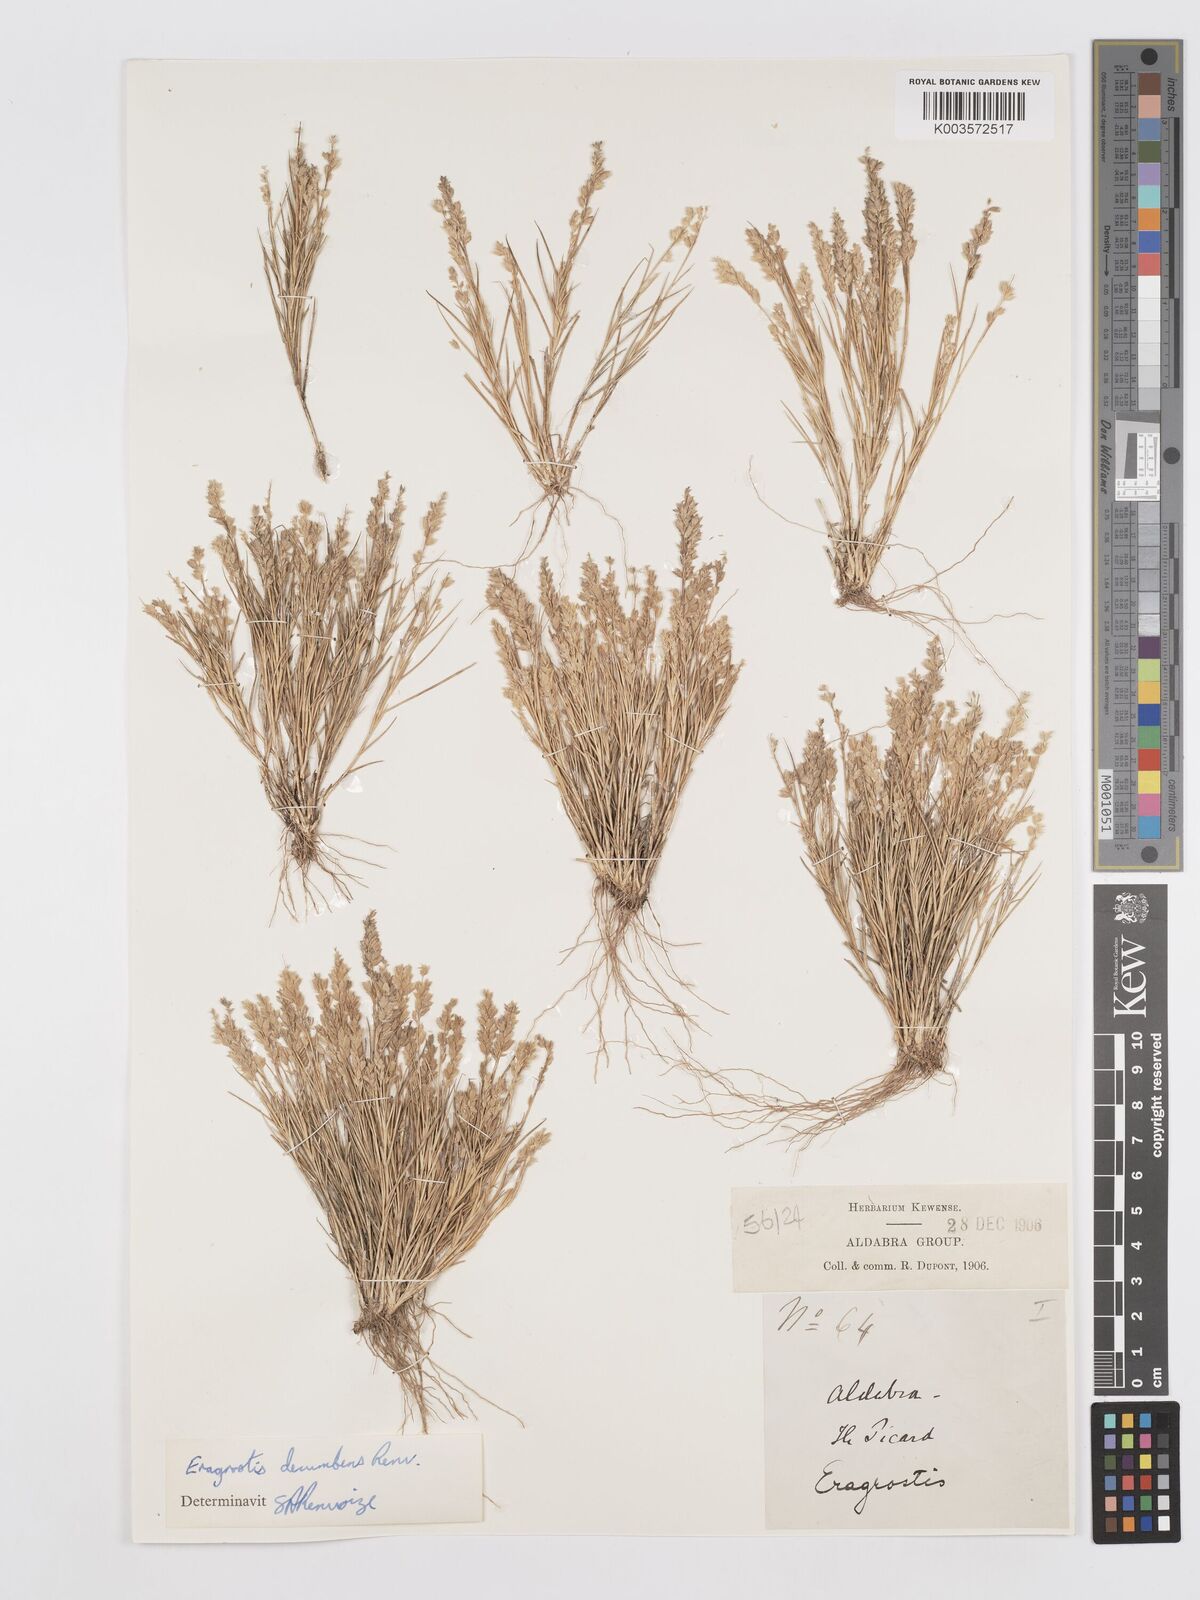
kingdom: Plantae
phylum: Tracheophyta
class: Liliopsida
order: Poales
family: Poaceae
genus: Eragrostis
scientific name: Eragrostis decumbens
